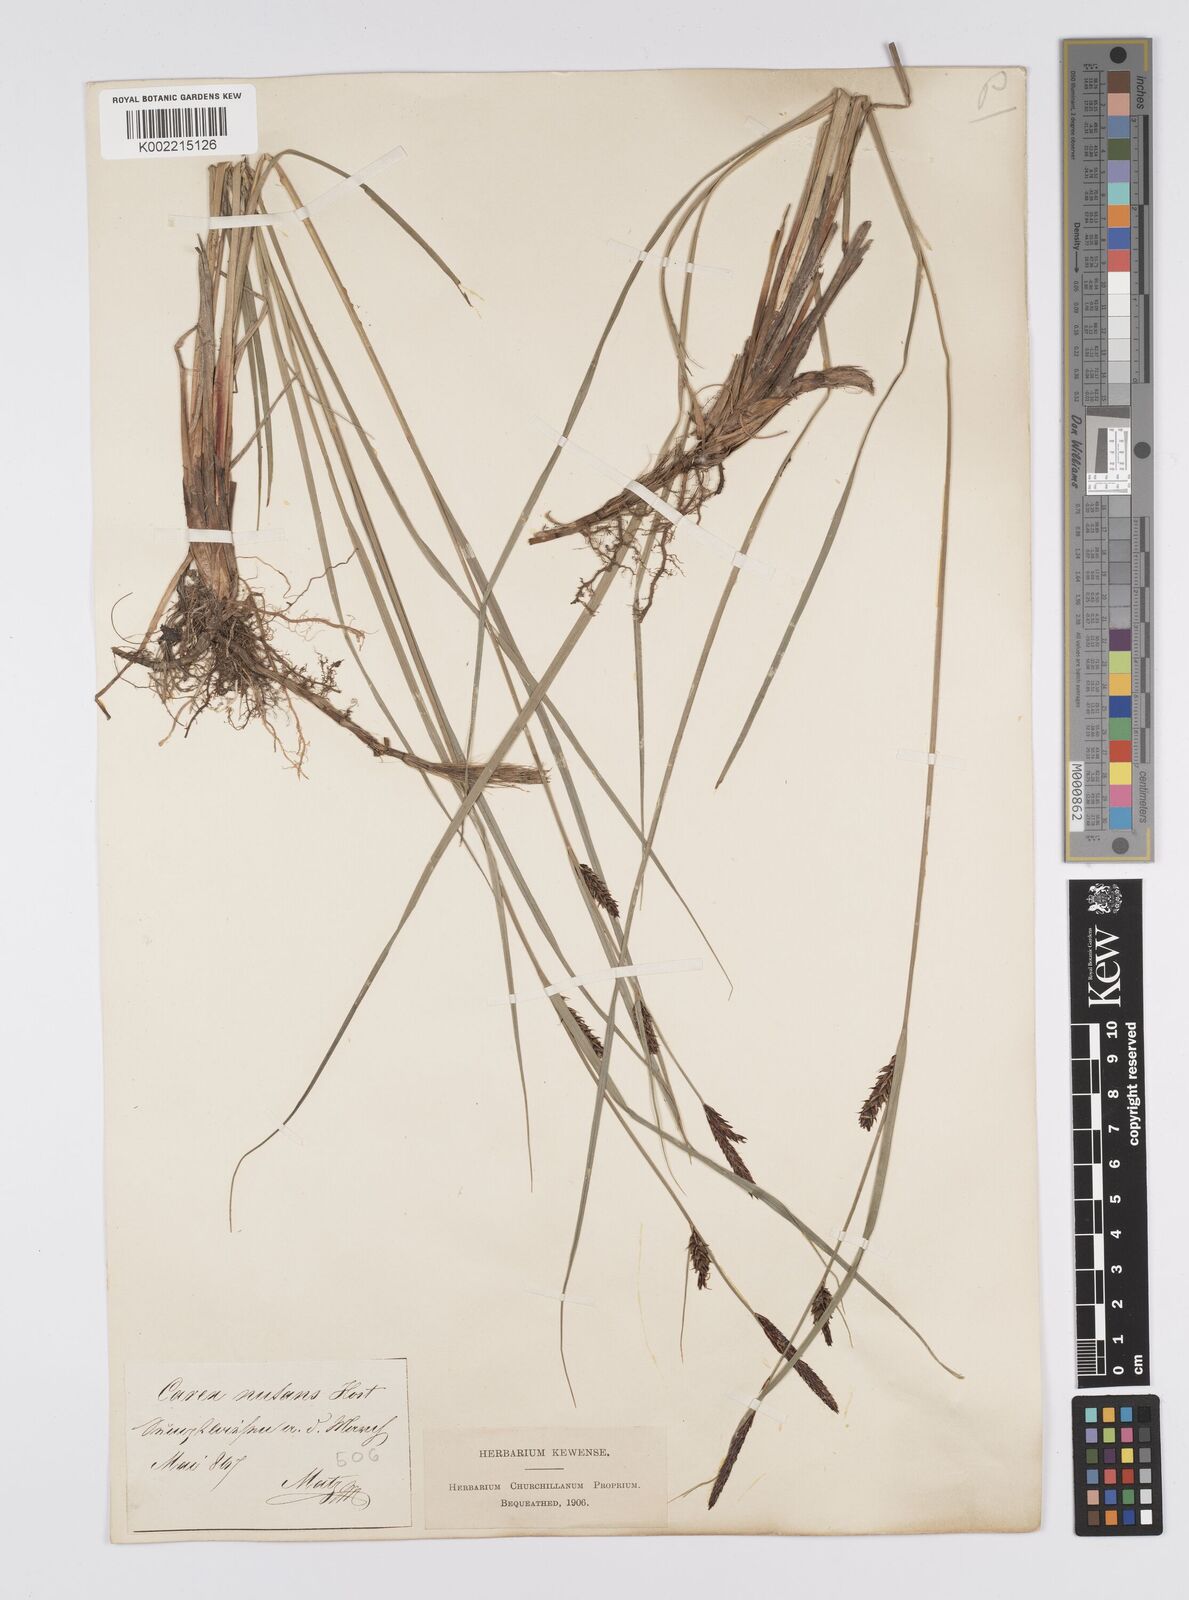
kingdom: Plantae
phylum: Tracheophyta
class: Liliopsida
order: Poales
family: Cyperaceae
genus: Carex
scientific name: Carex melanostachya
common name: Black-spiked sedge
